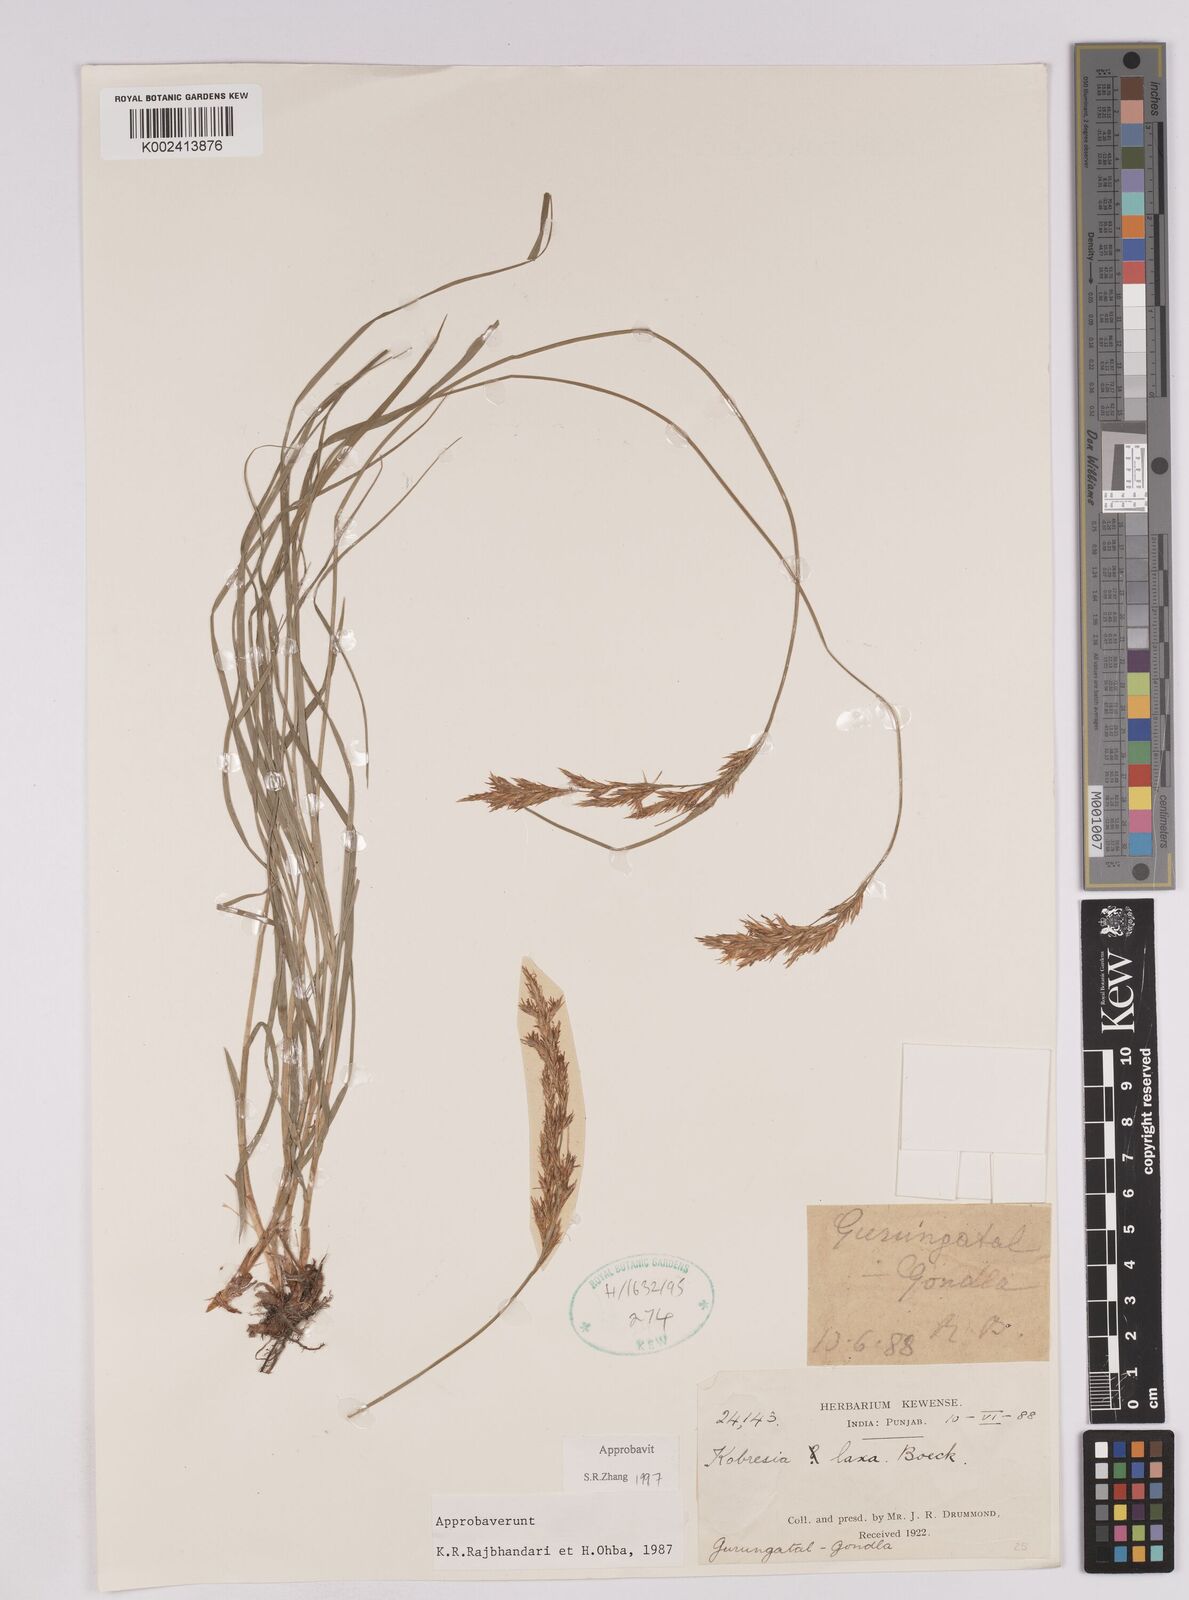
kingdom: Plantae
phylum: Tracheophyta
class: Liliopsida
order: Poales
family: Cyperaceae
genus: Carex
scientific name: Carex
